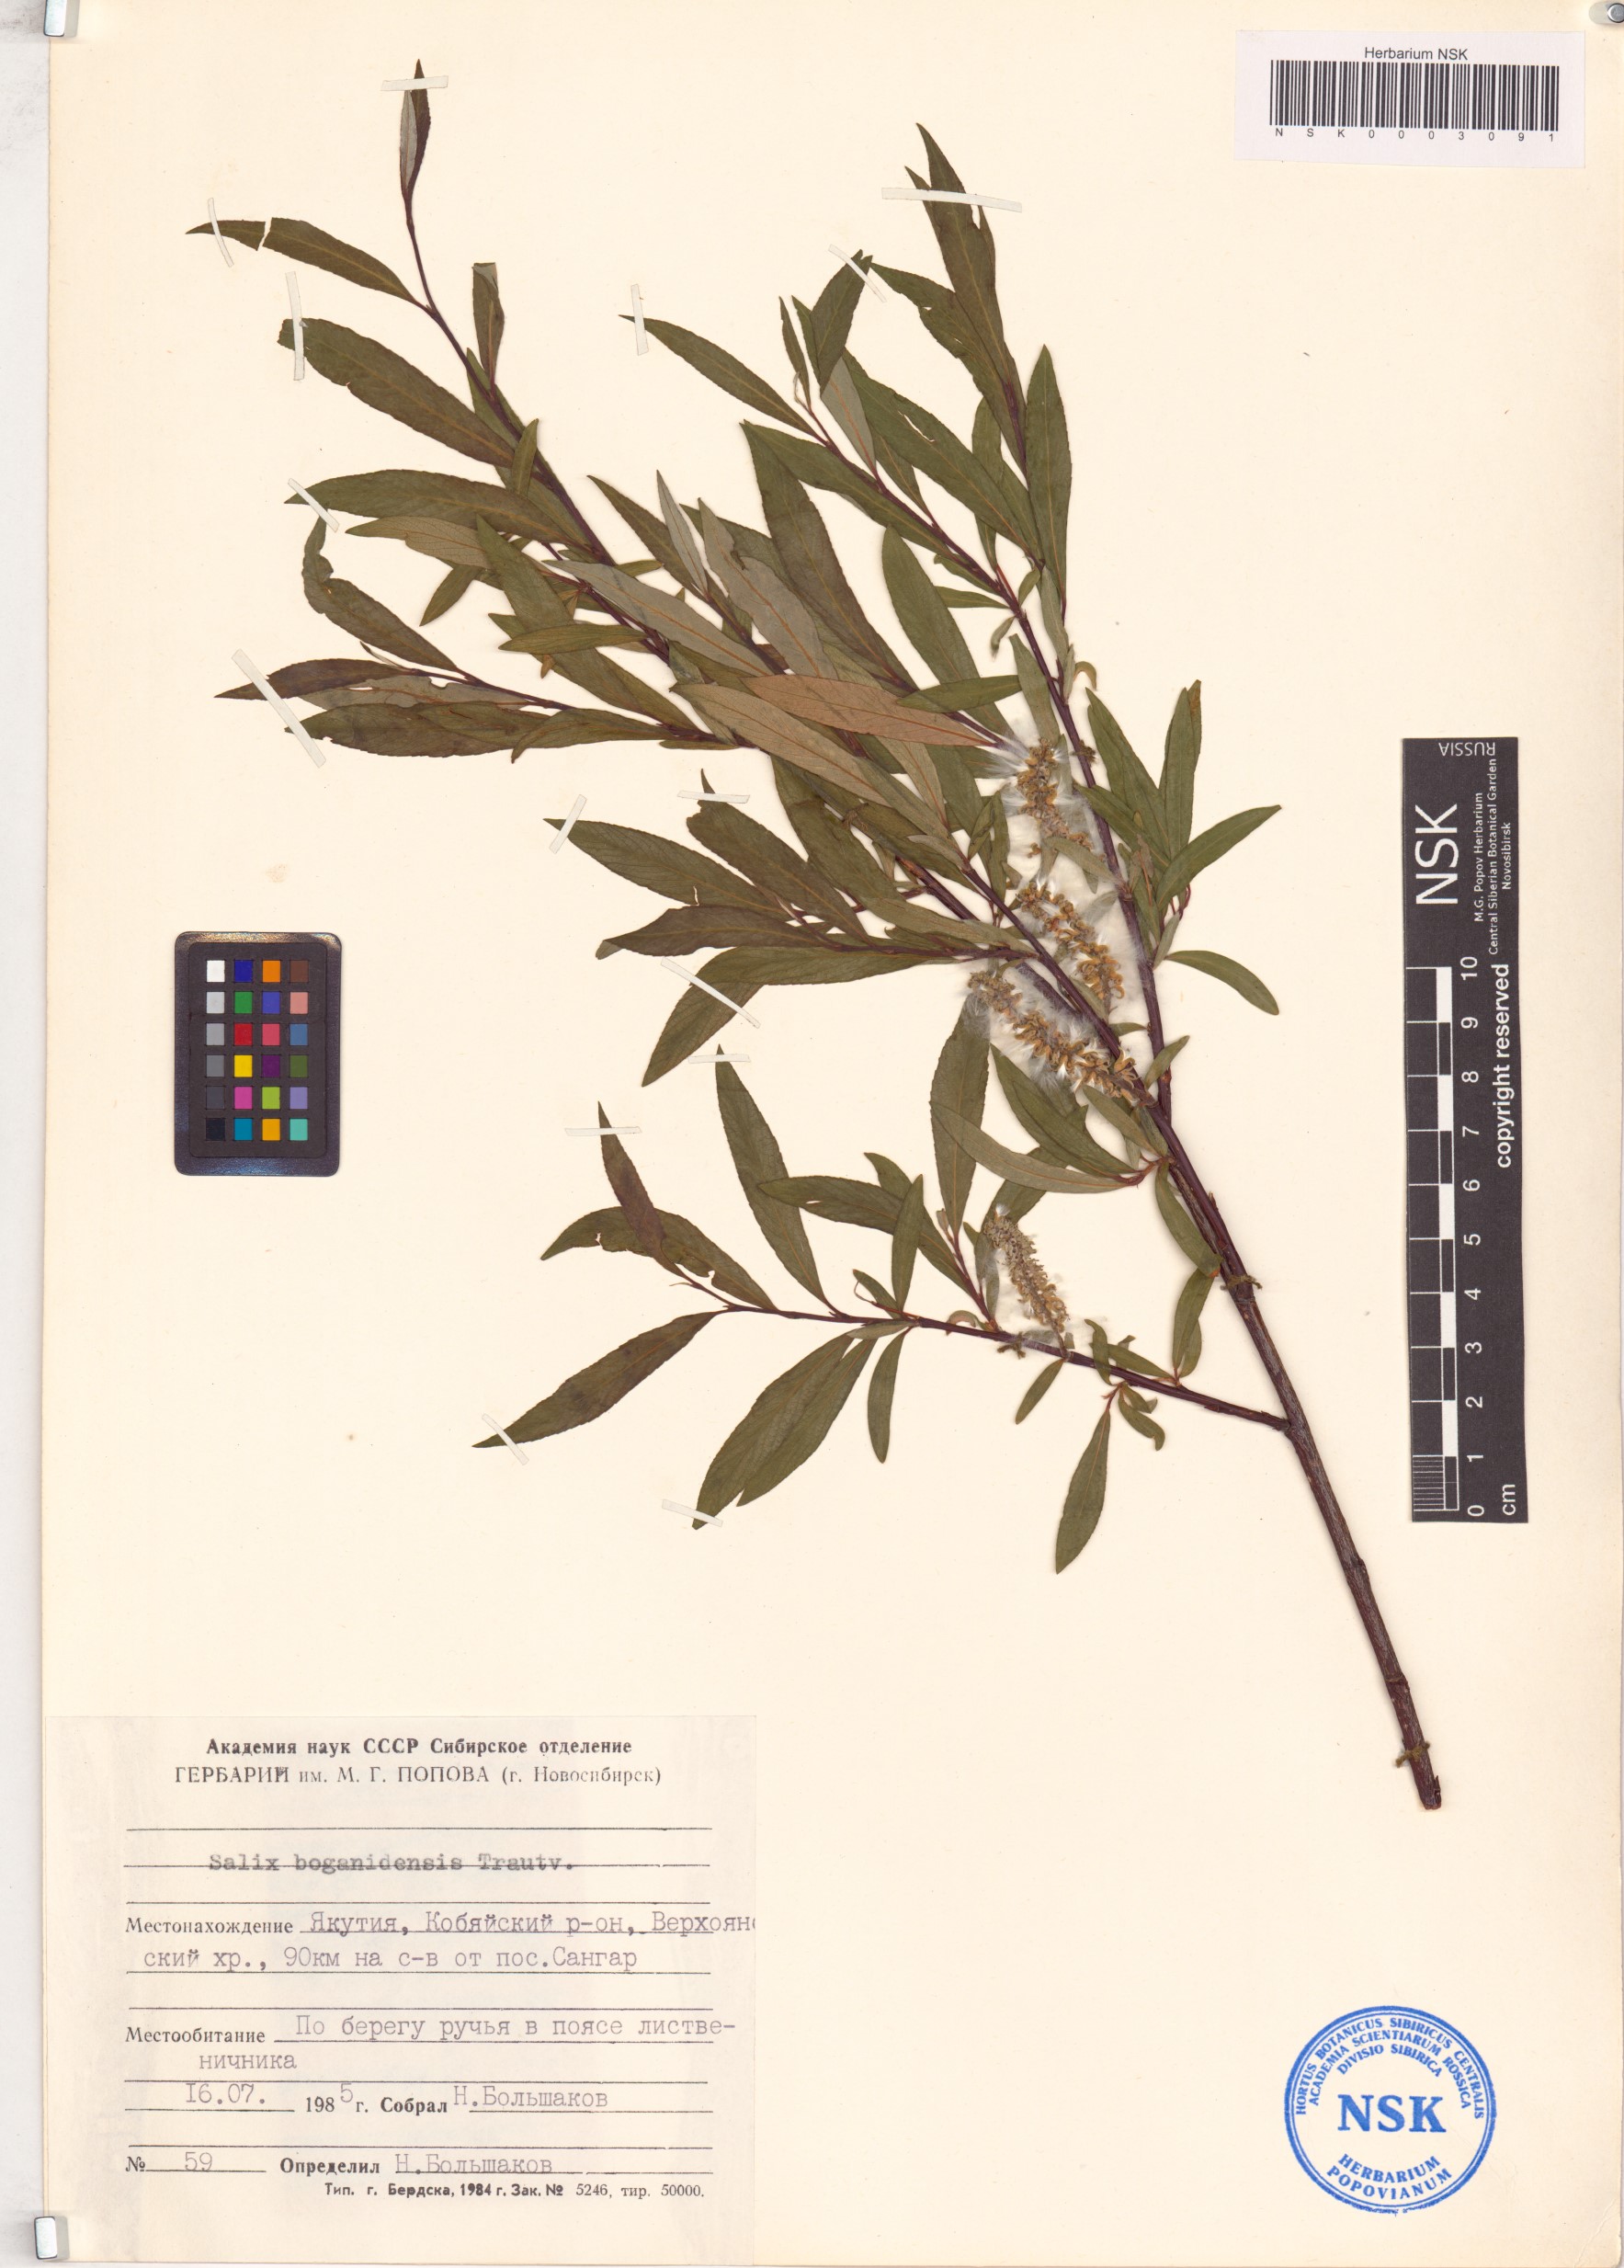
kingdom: Plantae
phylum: Tracheophyta
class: Magnoliopsida
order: Malpighiales
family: Salicaceae
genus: Salix
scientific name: Salix boganidensis
